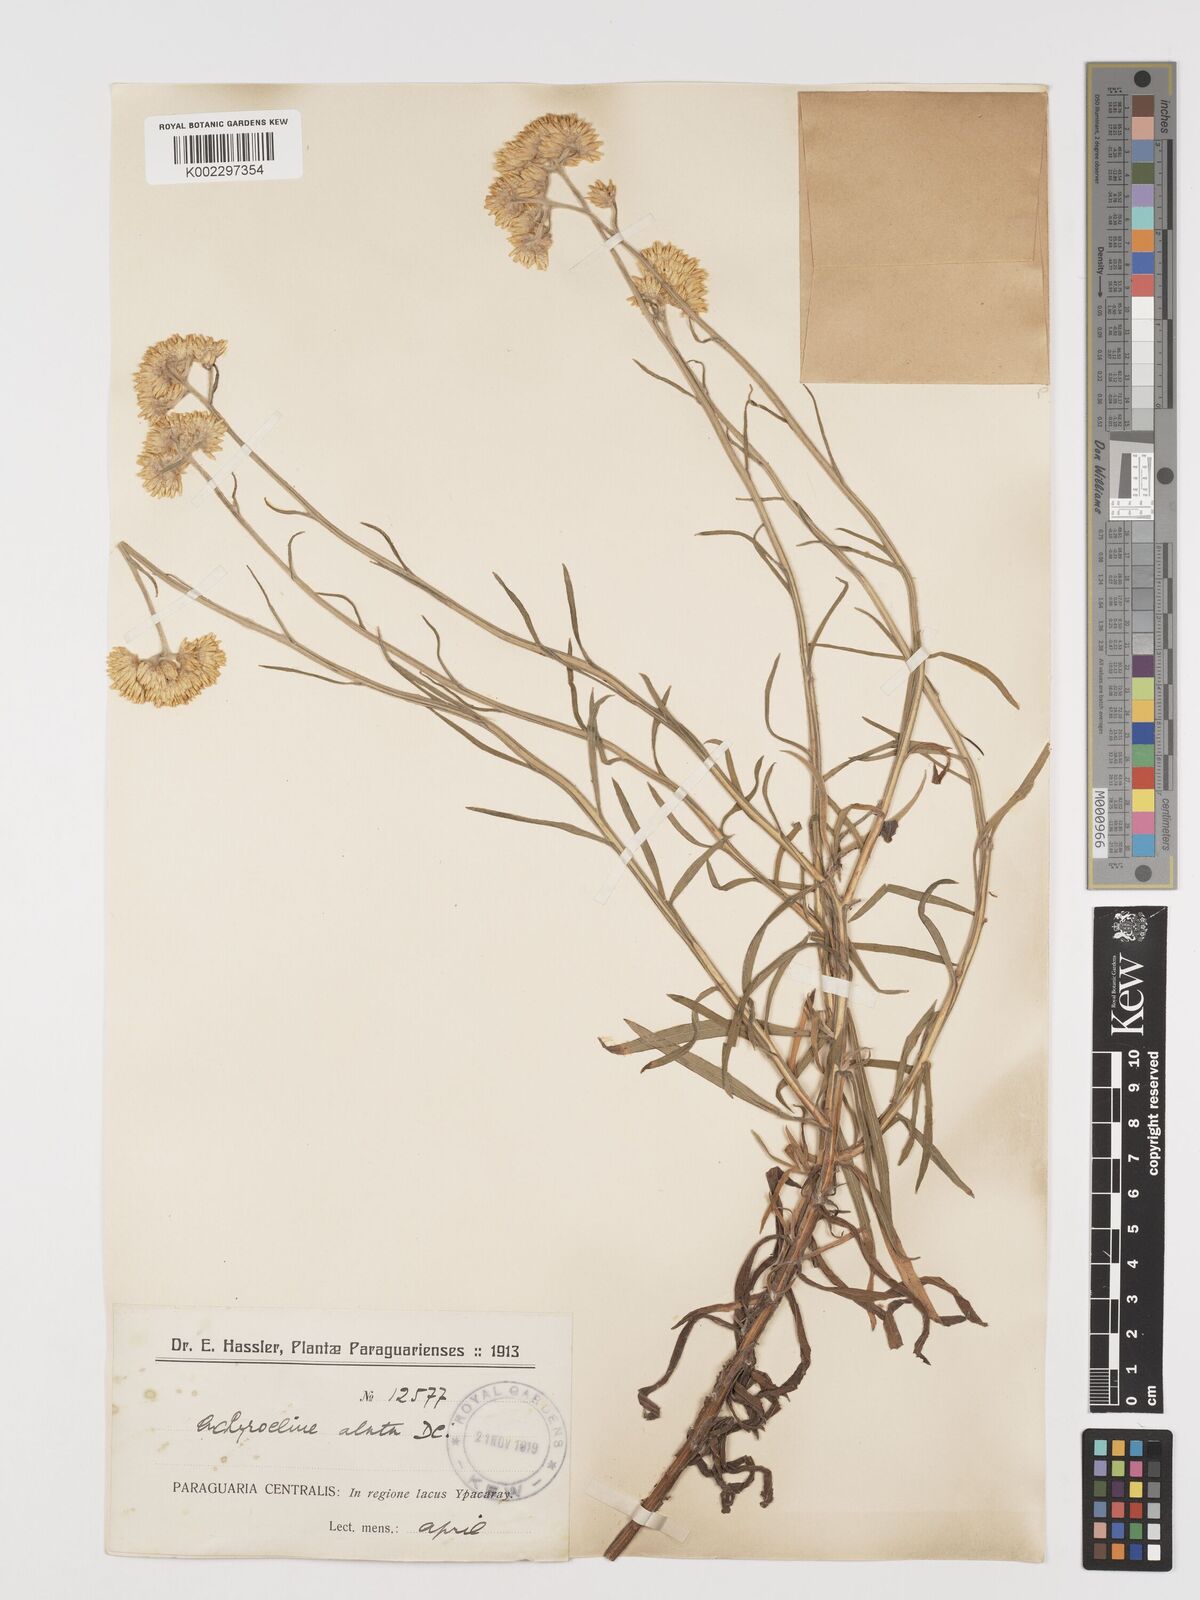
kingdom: Plantae
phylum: Tracheophyta
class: Magnoliopsida
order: Asterales
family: Asteraceae
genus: Achyrocline
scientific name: Achyrocline alata
